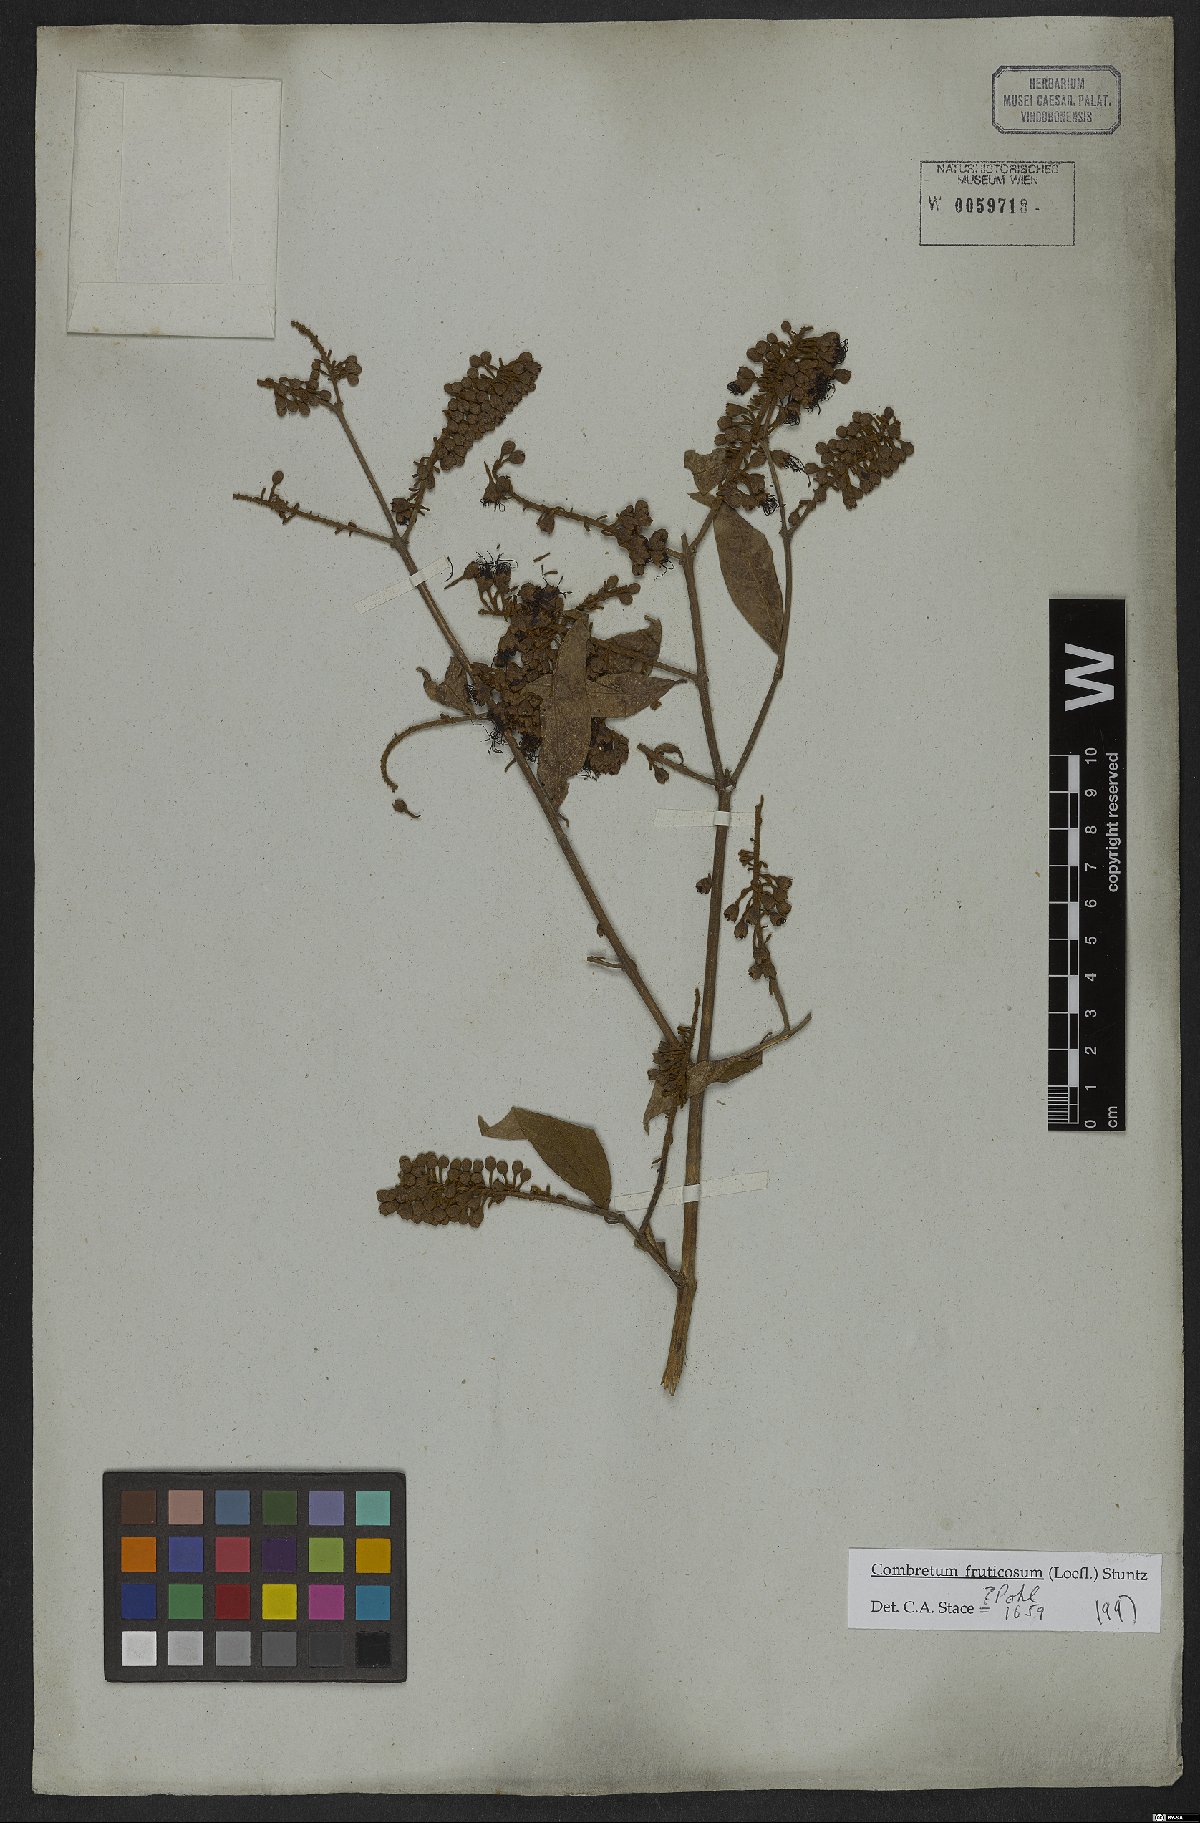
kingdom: Plantae
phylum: Tracheophyta
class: Magnoliopsida
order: Myrtales
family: Combretaceae
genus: Combretum
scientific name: Combretum fruticosum
